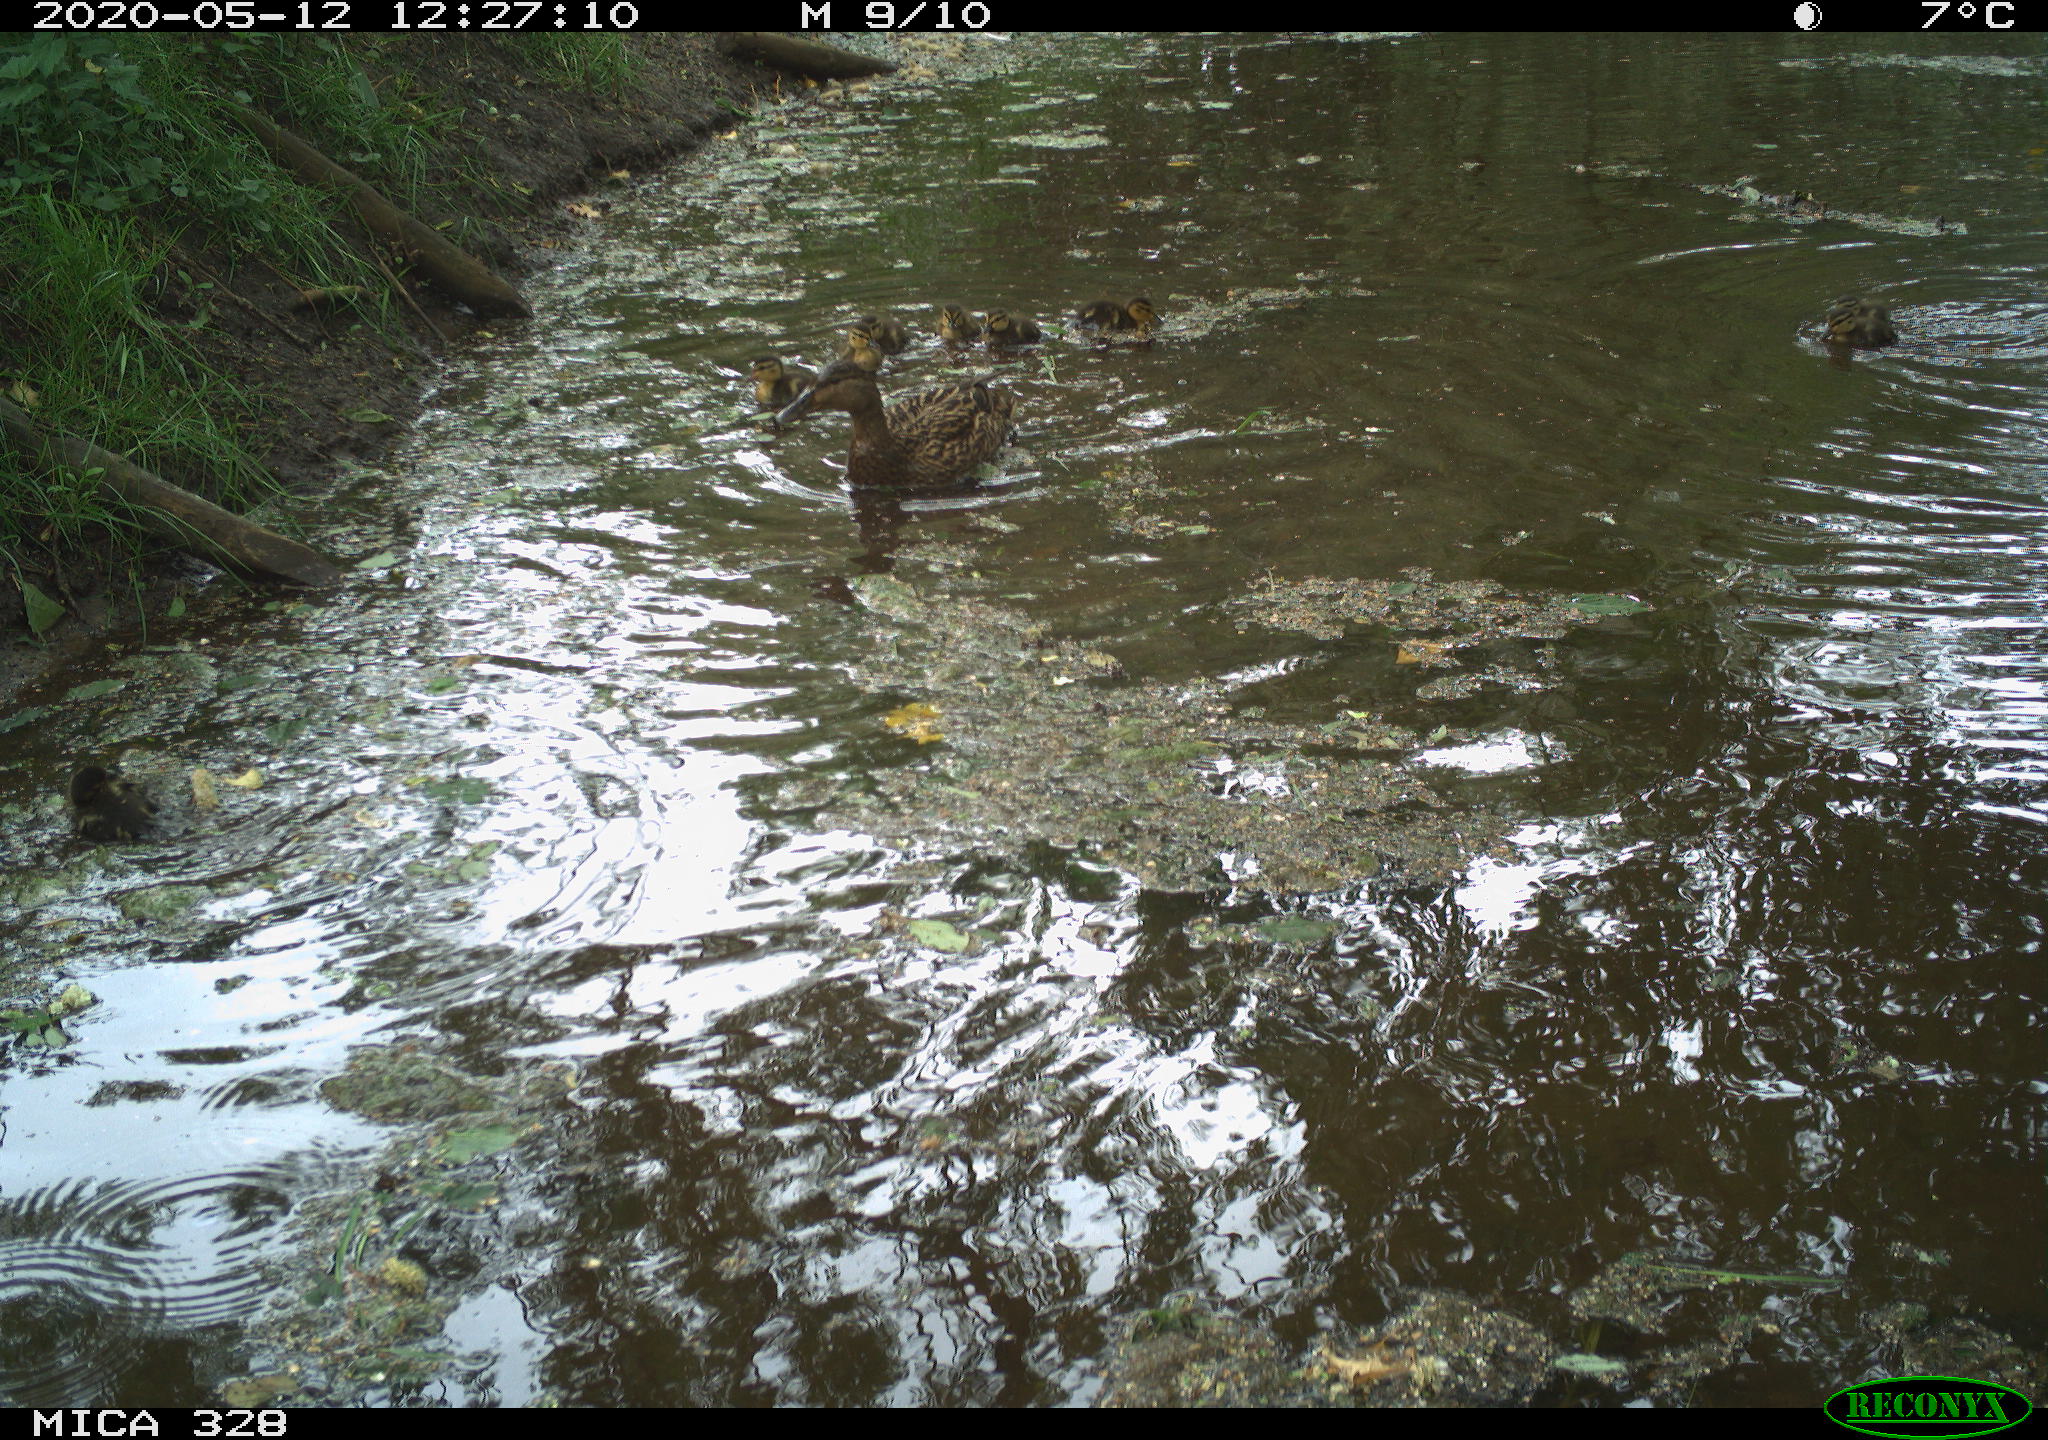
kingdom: Animalia
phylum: Chordata
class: Aves
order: Anseriformes
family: Anatidae
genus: Anas
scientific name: Anas platyrhynchos
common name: Mallard
